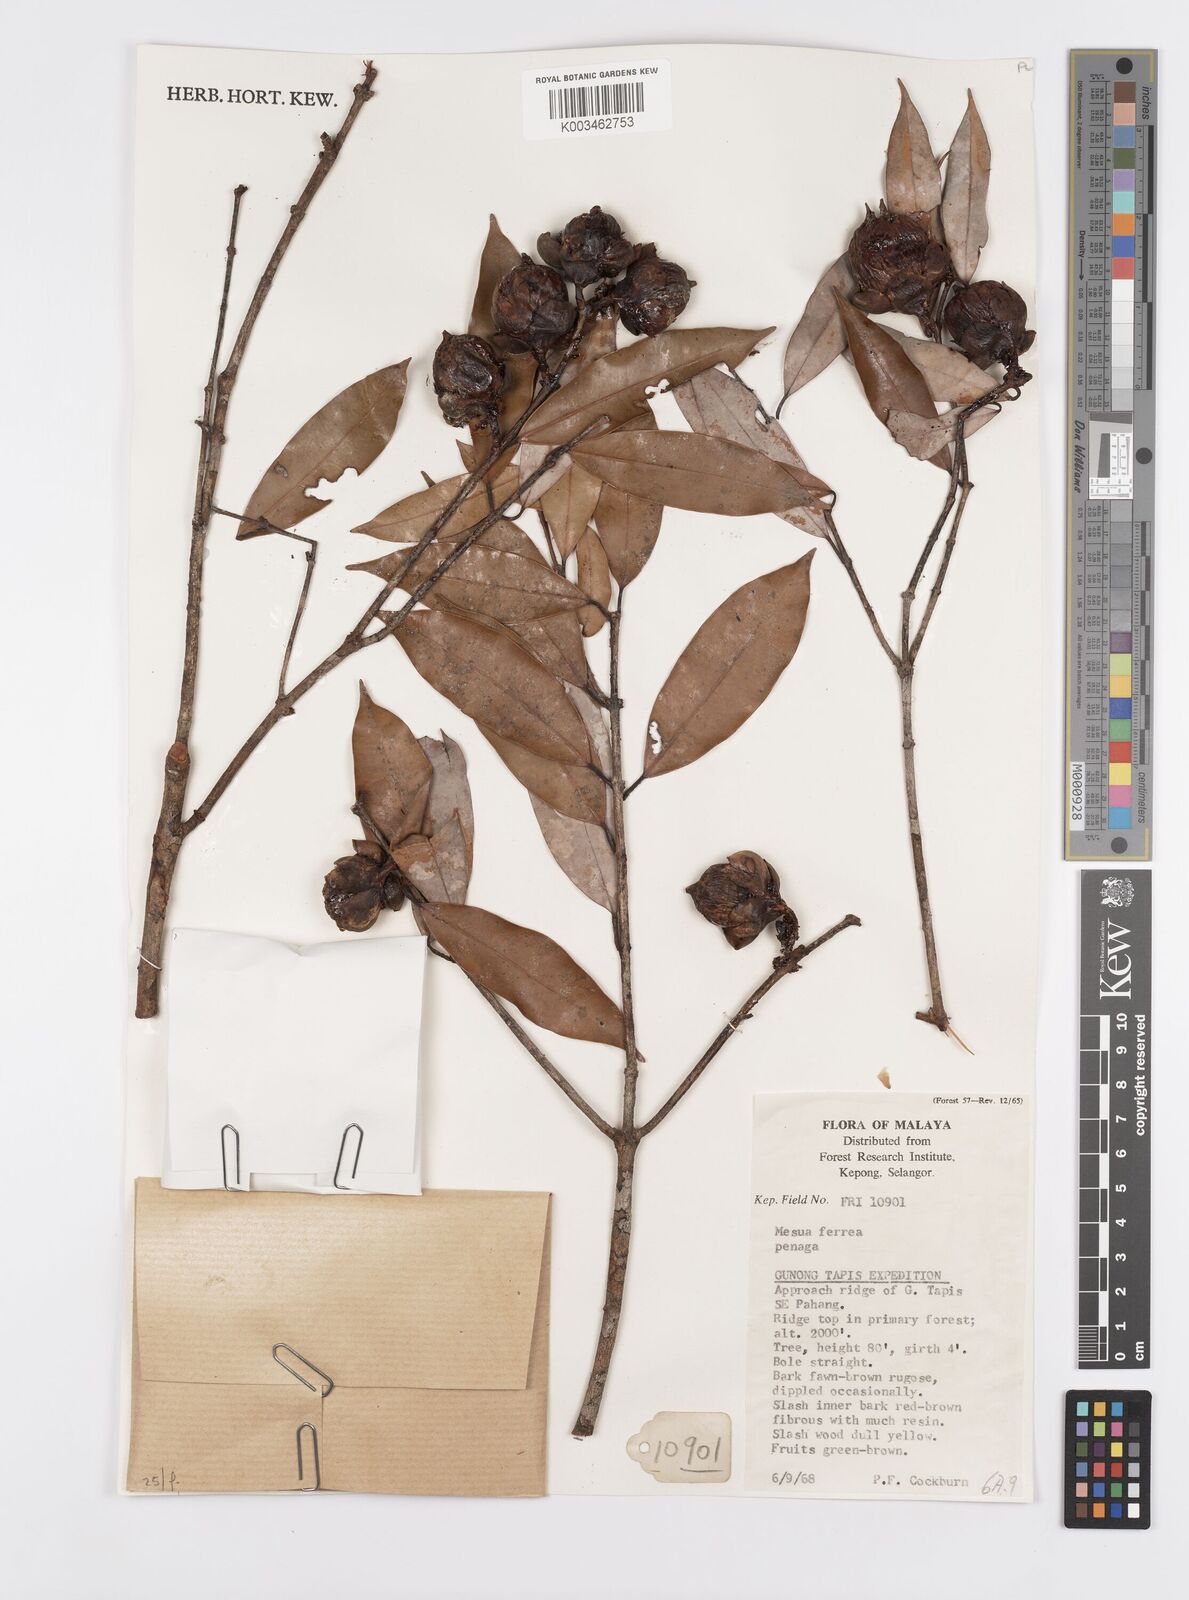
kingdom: Plantae
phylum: Tracheophyta
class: Magnoliopsida
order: Malpighiales
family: Calophyllaceae
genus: Mesua
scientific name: Mesua ferrea
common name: Mesua
